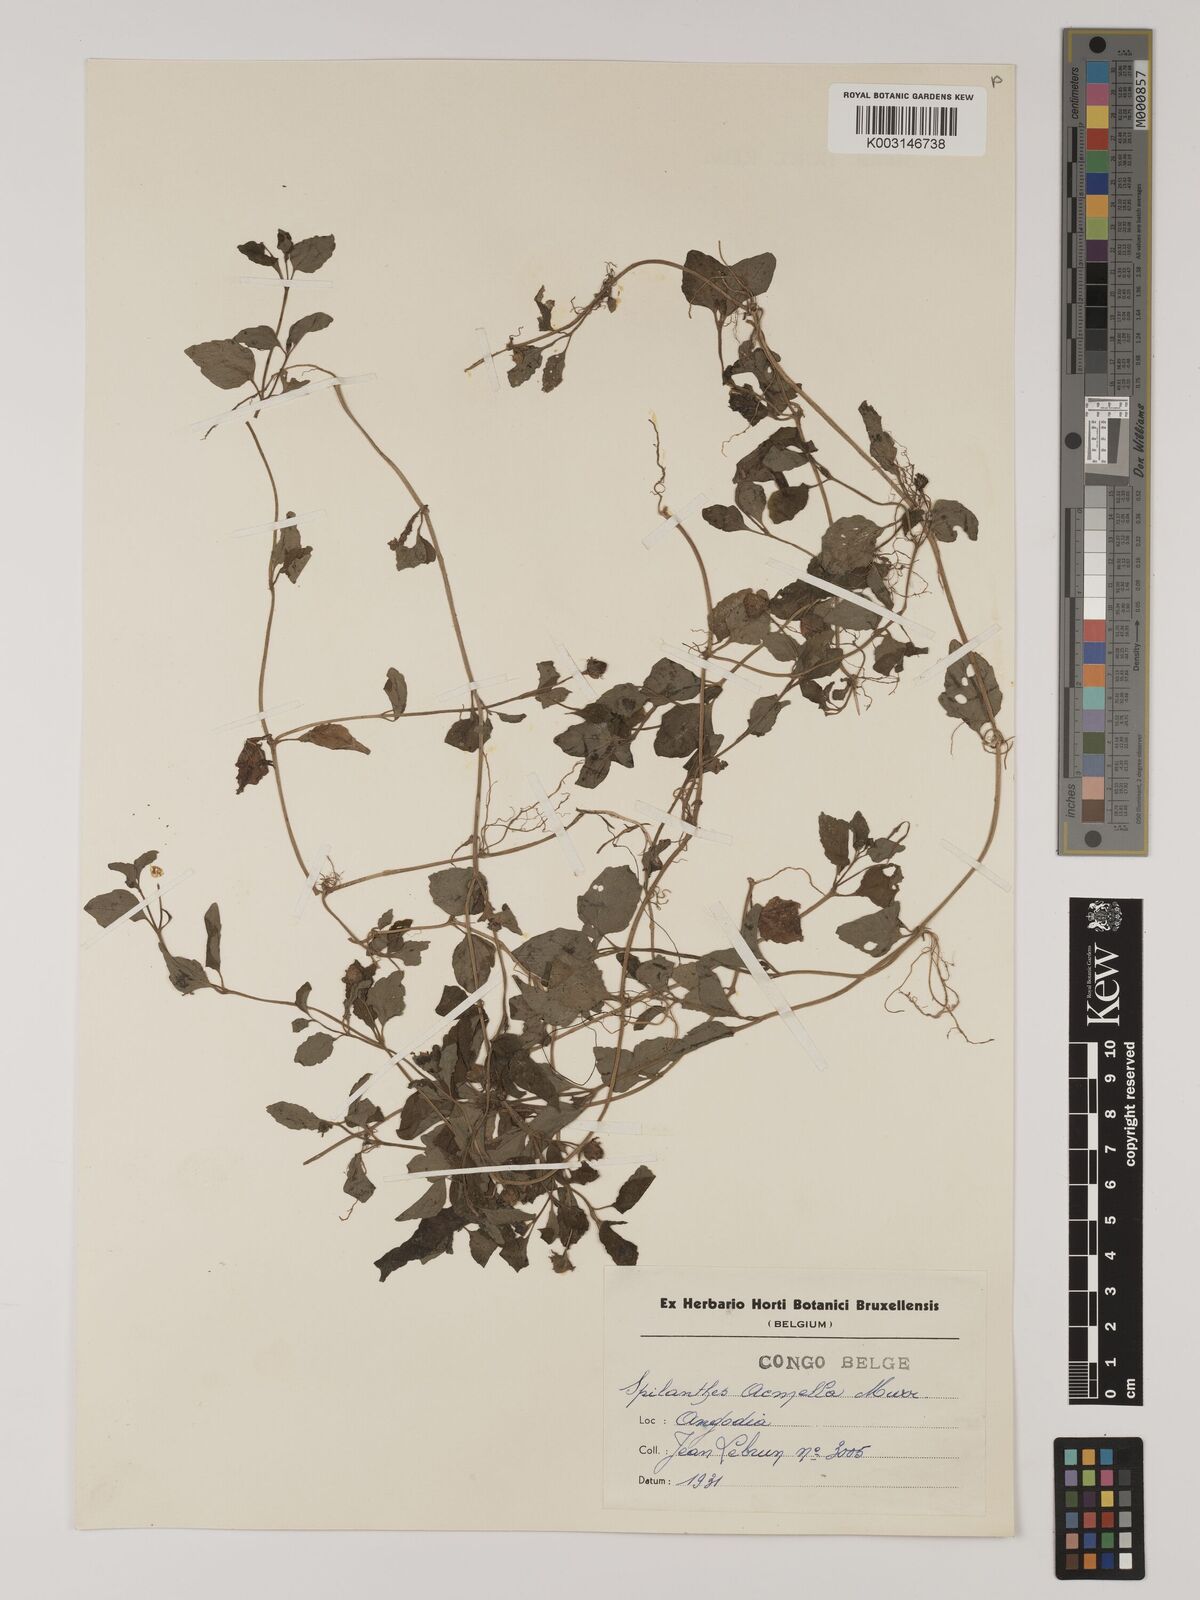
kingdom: Plantae
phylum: Tracheophyta
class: Magnoliopsida
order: Asterales
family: Asteraceae
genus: Blainvillea
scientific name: Blainvillea acmella
